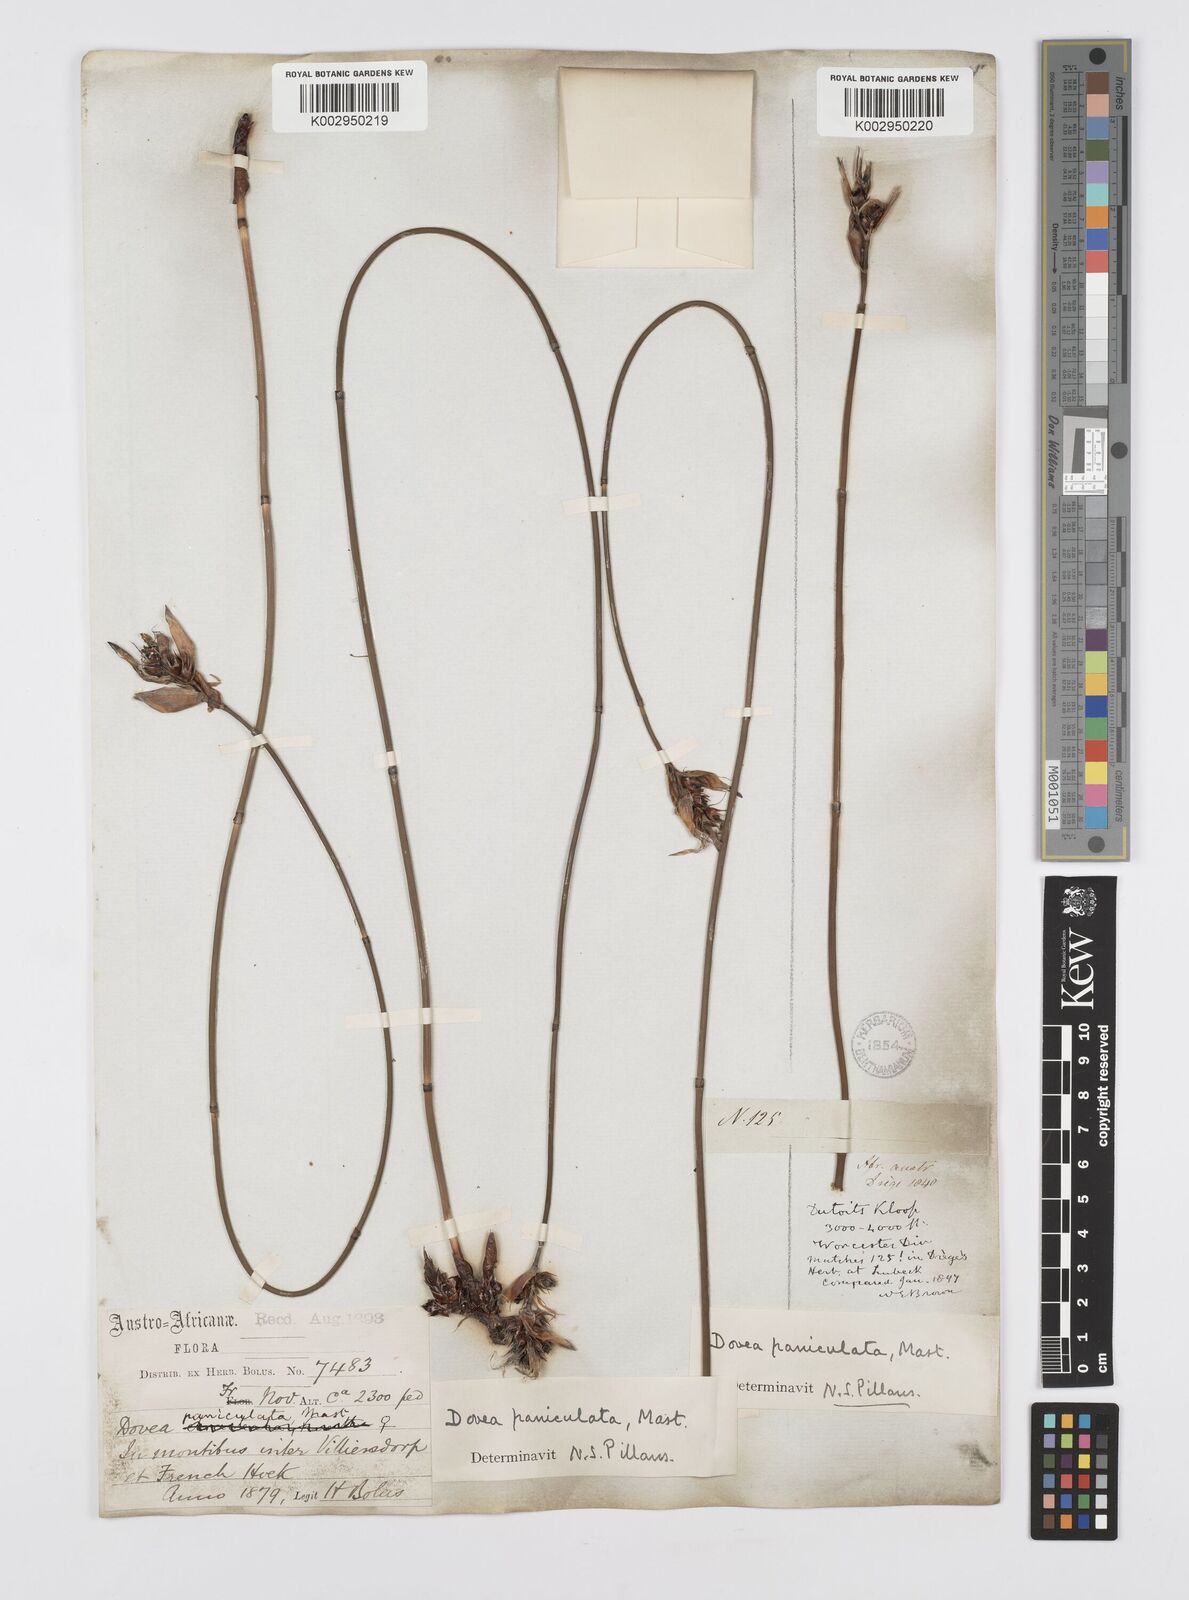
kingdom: Plantae
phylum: Tracheophyta
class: Liliopsida
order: Poales
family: Restionaceae
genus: Askidiosperma
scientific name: Askidiosperma paniculatum
